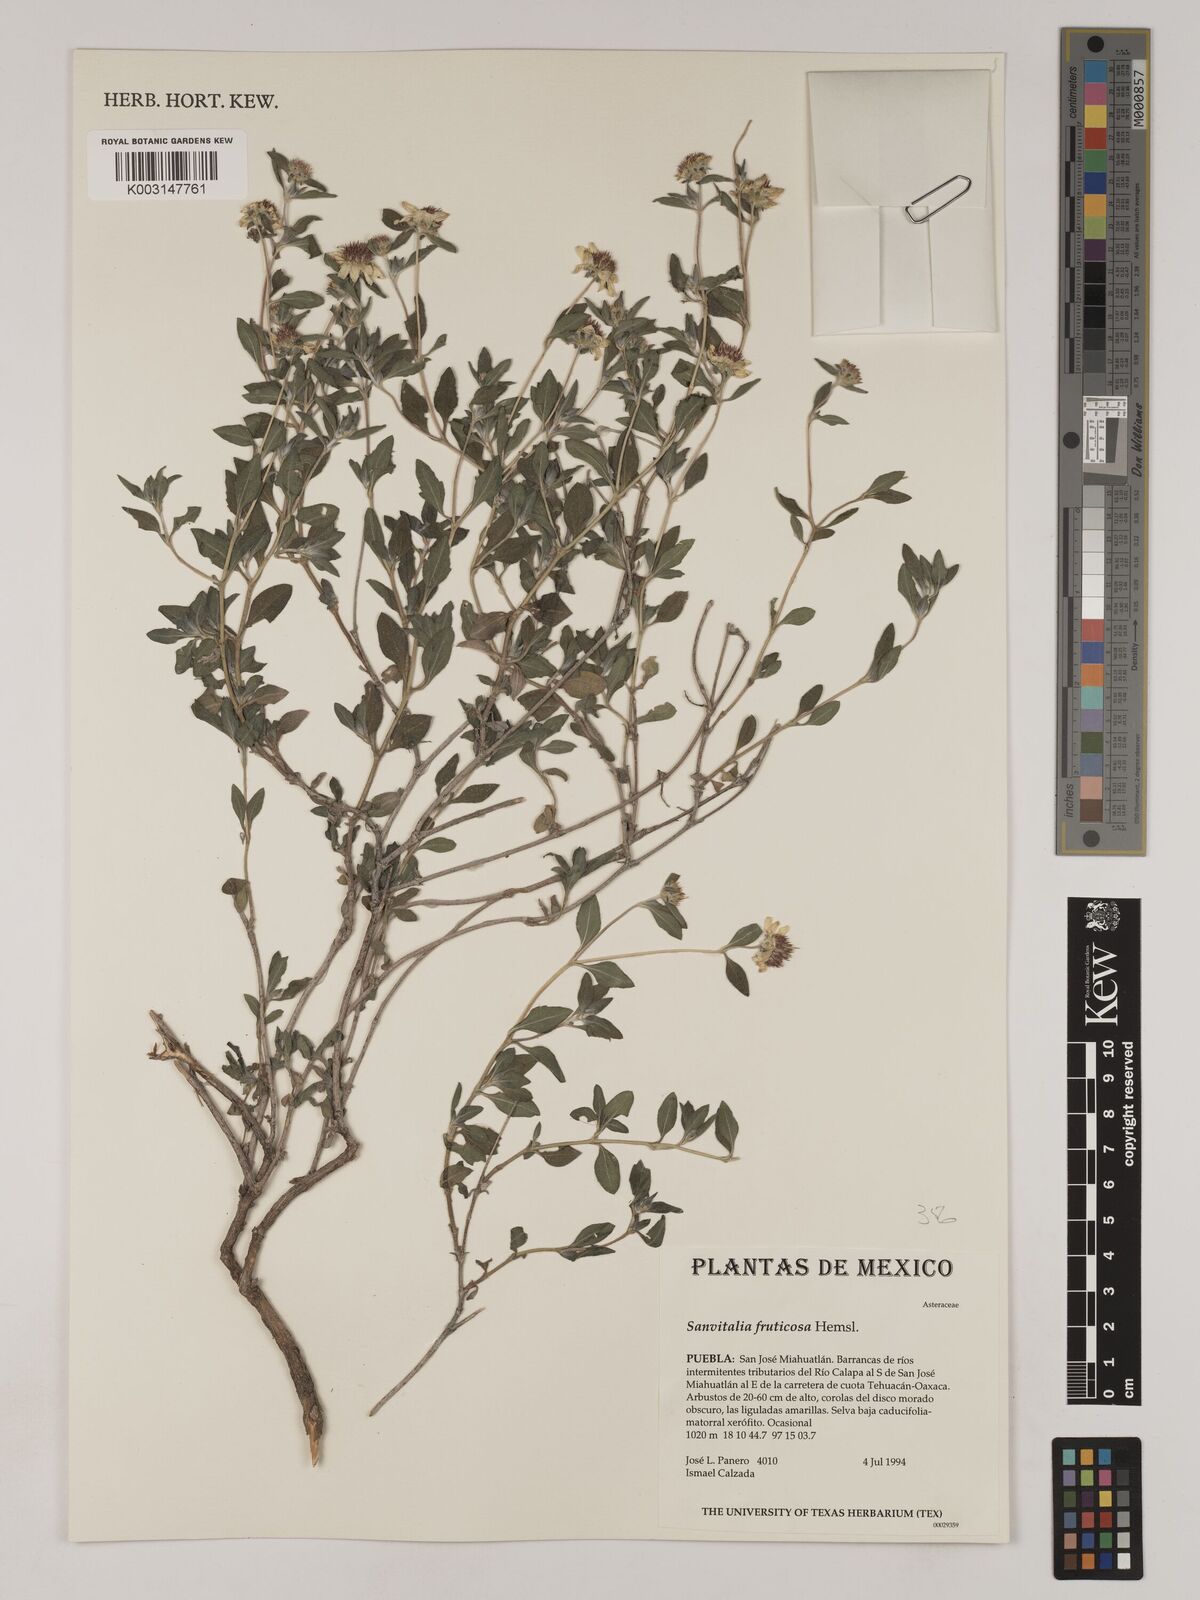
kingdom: Plantae
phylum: Tracheophyta
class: Magnoliopsida
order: Asterales
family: Asteraceae
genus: Sanvitalia
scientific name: Sanvitalia fruticosa
